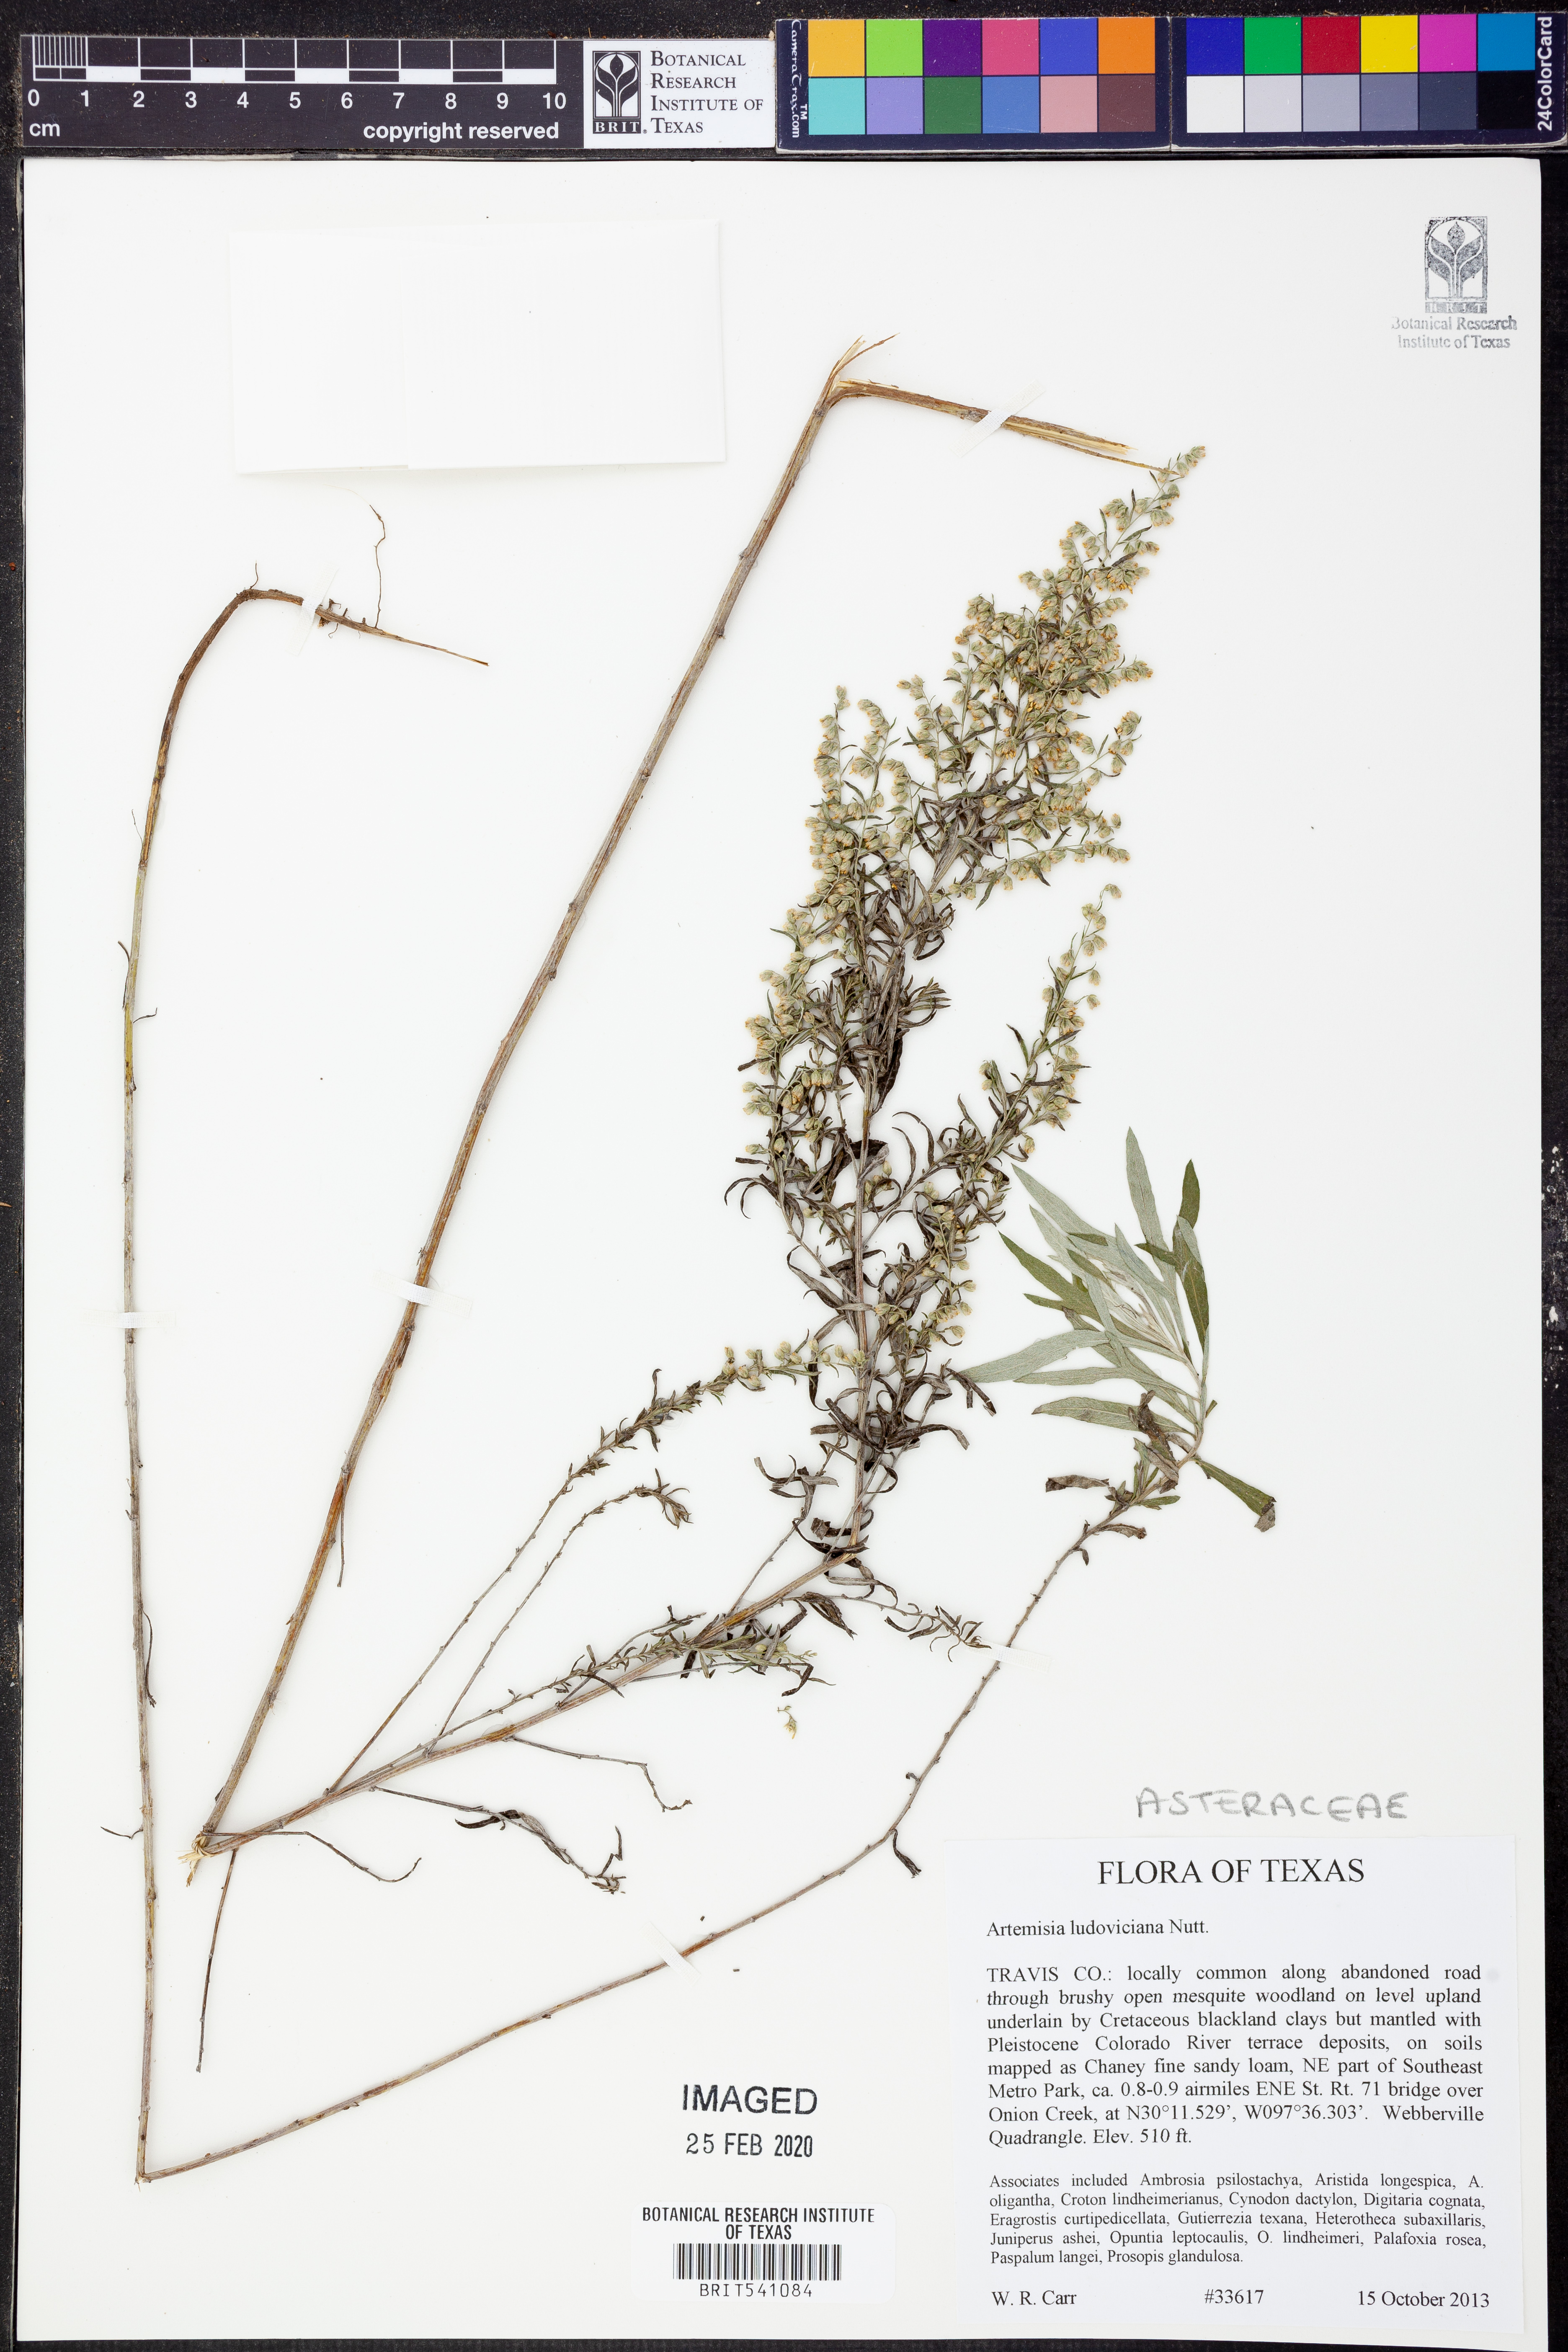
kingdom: Plantae
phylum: Tracheophyta
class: Magnoliopsida
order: Asterales
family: Asteraceae
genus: Artemisia
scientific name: Artemisia ludoviciana
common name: Western mugwort
